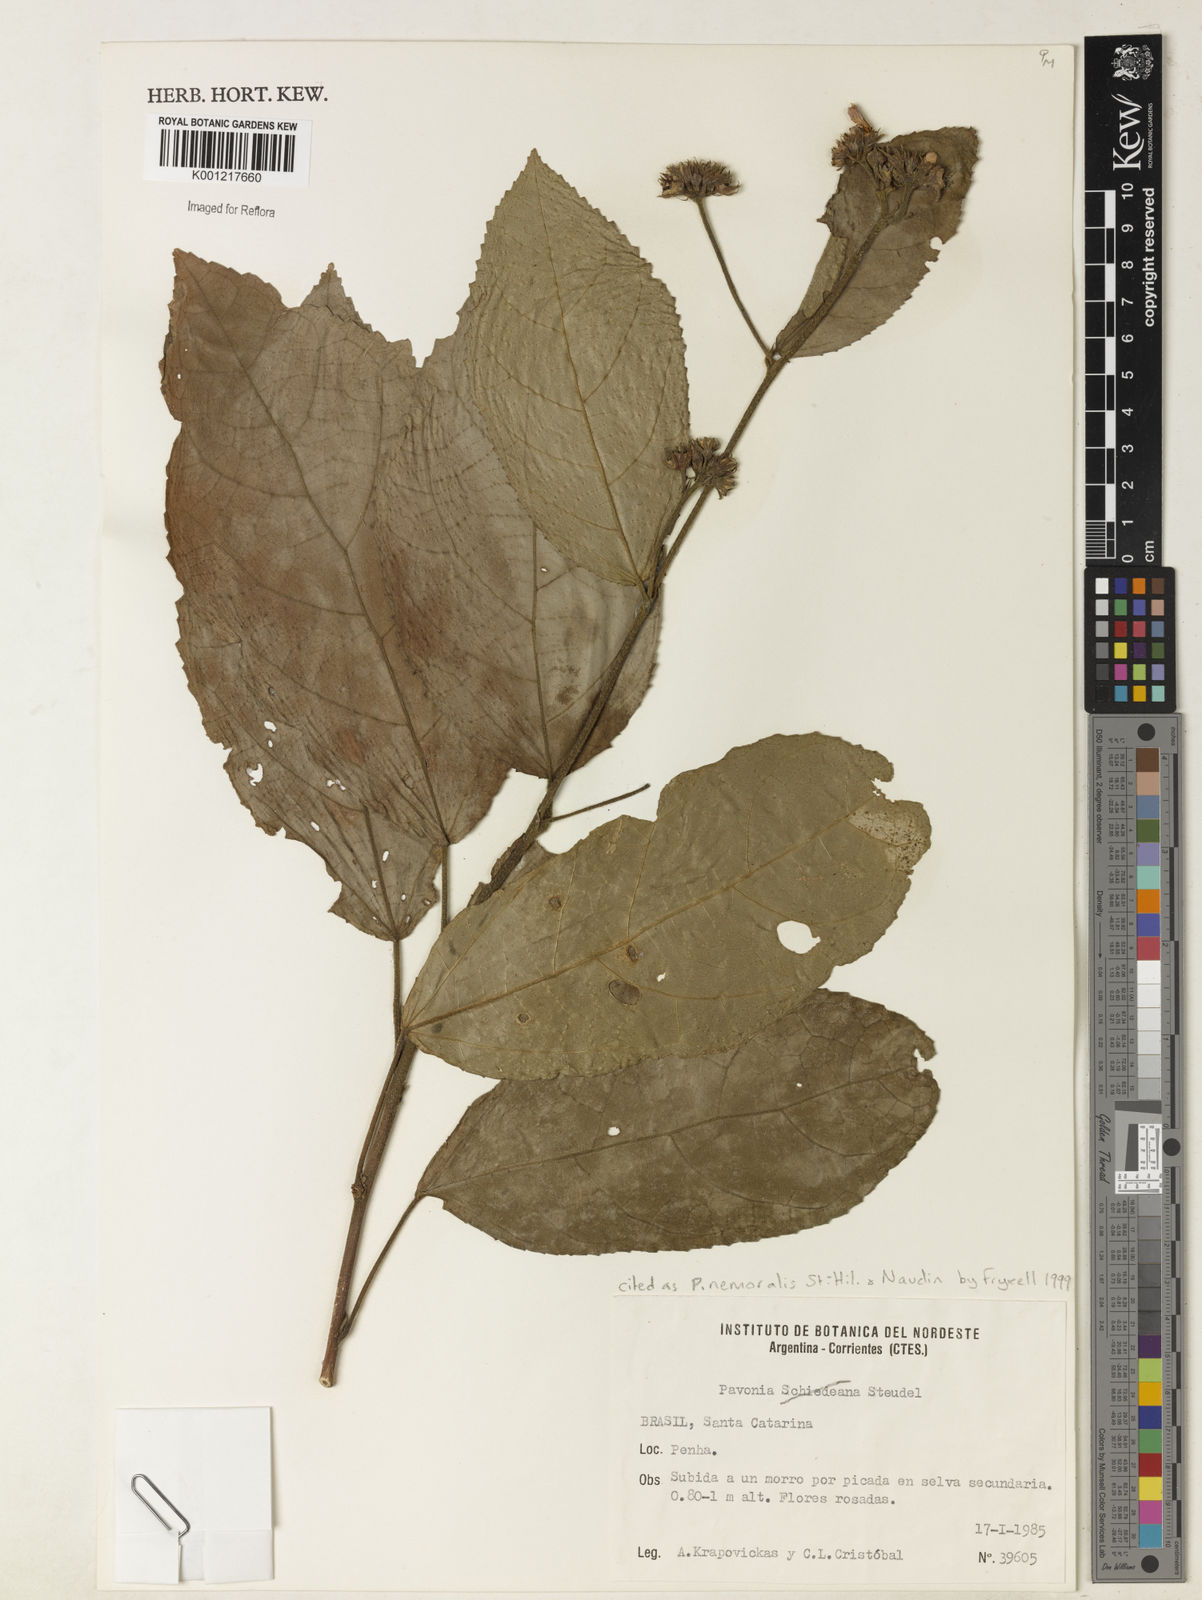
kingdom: Plantae
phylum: Tracheophyta
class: Magnoliopsida
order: Malvales
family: Malvaceae
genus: Pavonia
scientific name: Pavonia nemoralis
